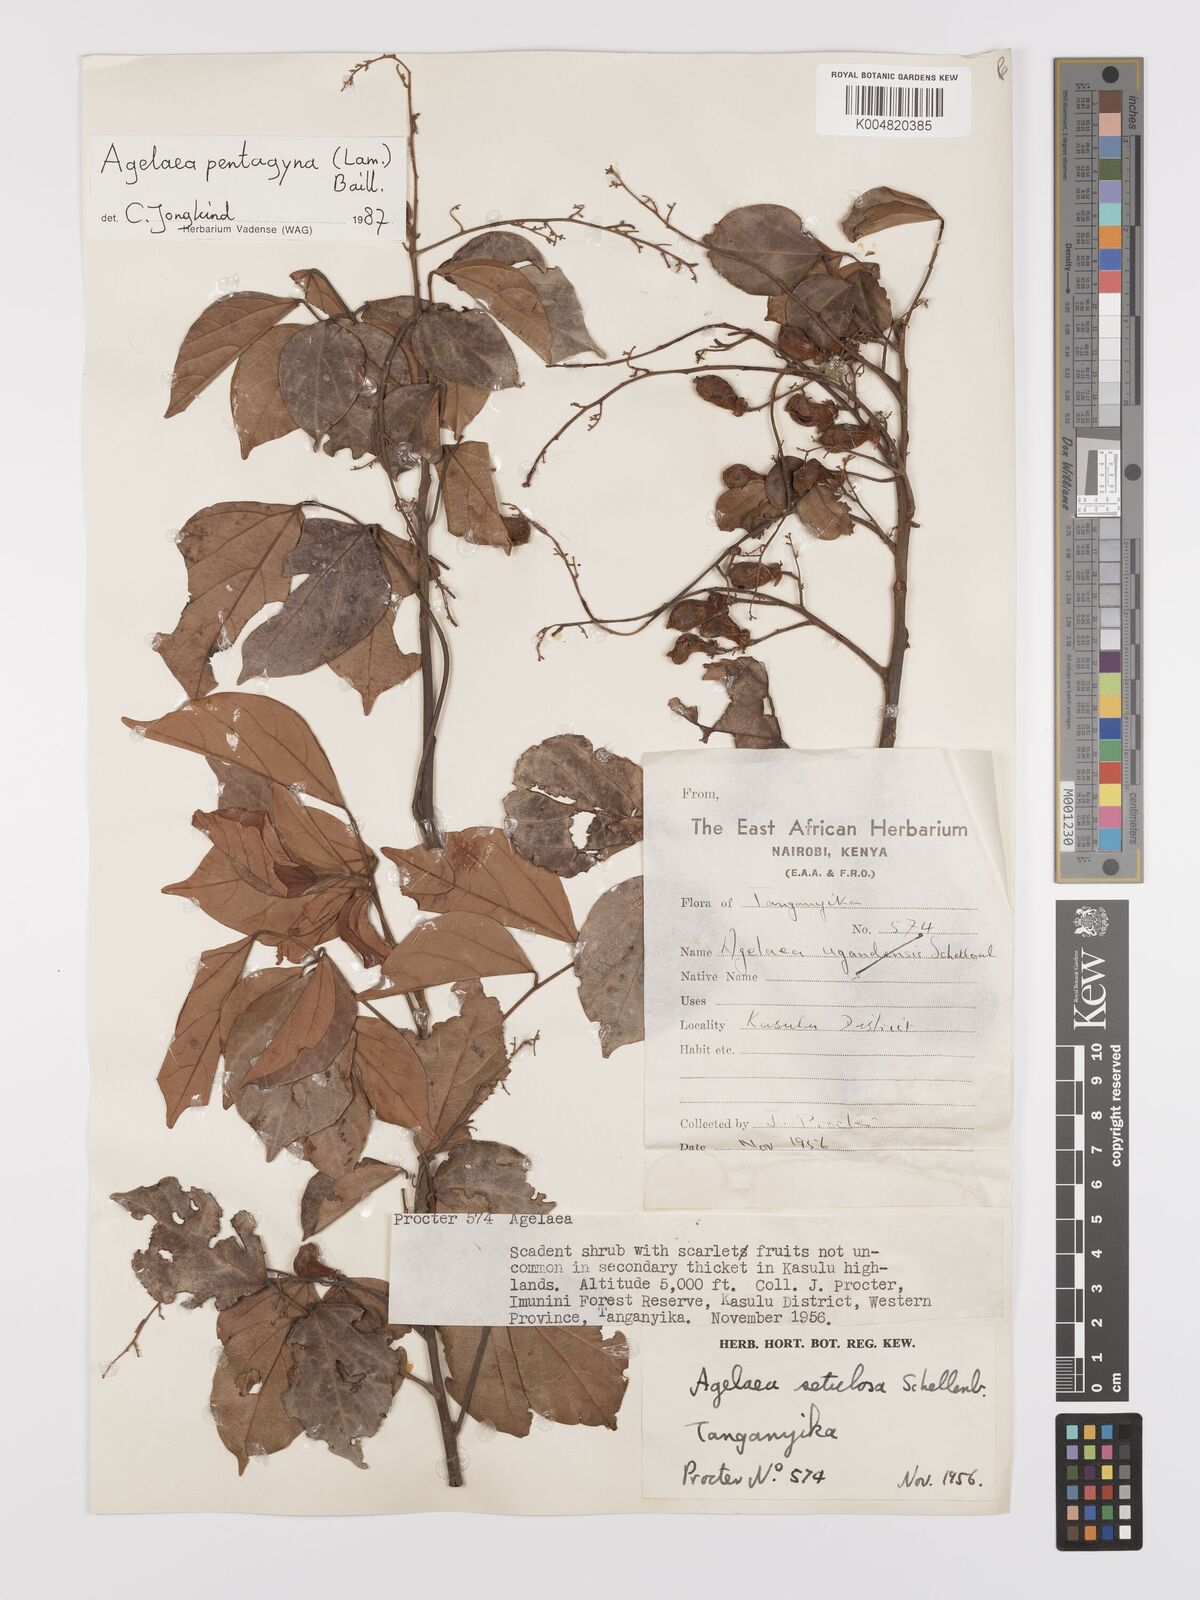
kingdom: Plantae
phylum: Tracheophyta
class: Magnoliopsida
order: Oxalidales
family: Connaraceae
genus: Agelaea
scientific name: Agelaea pentagyna
